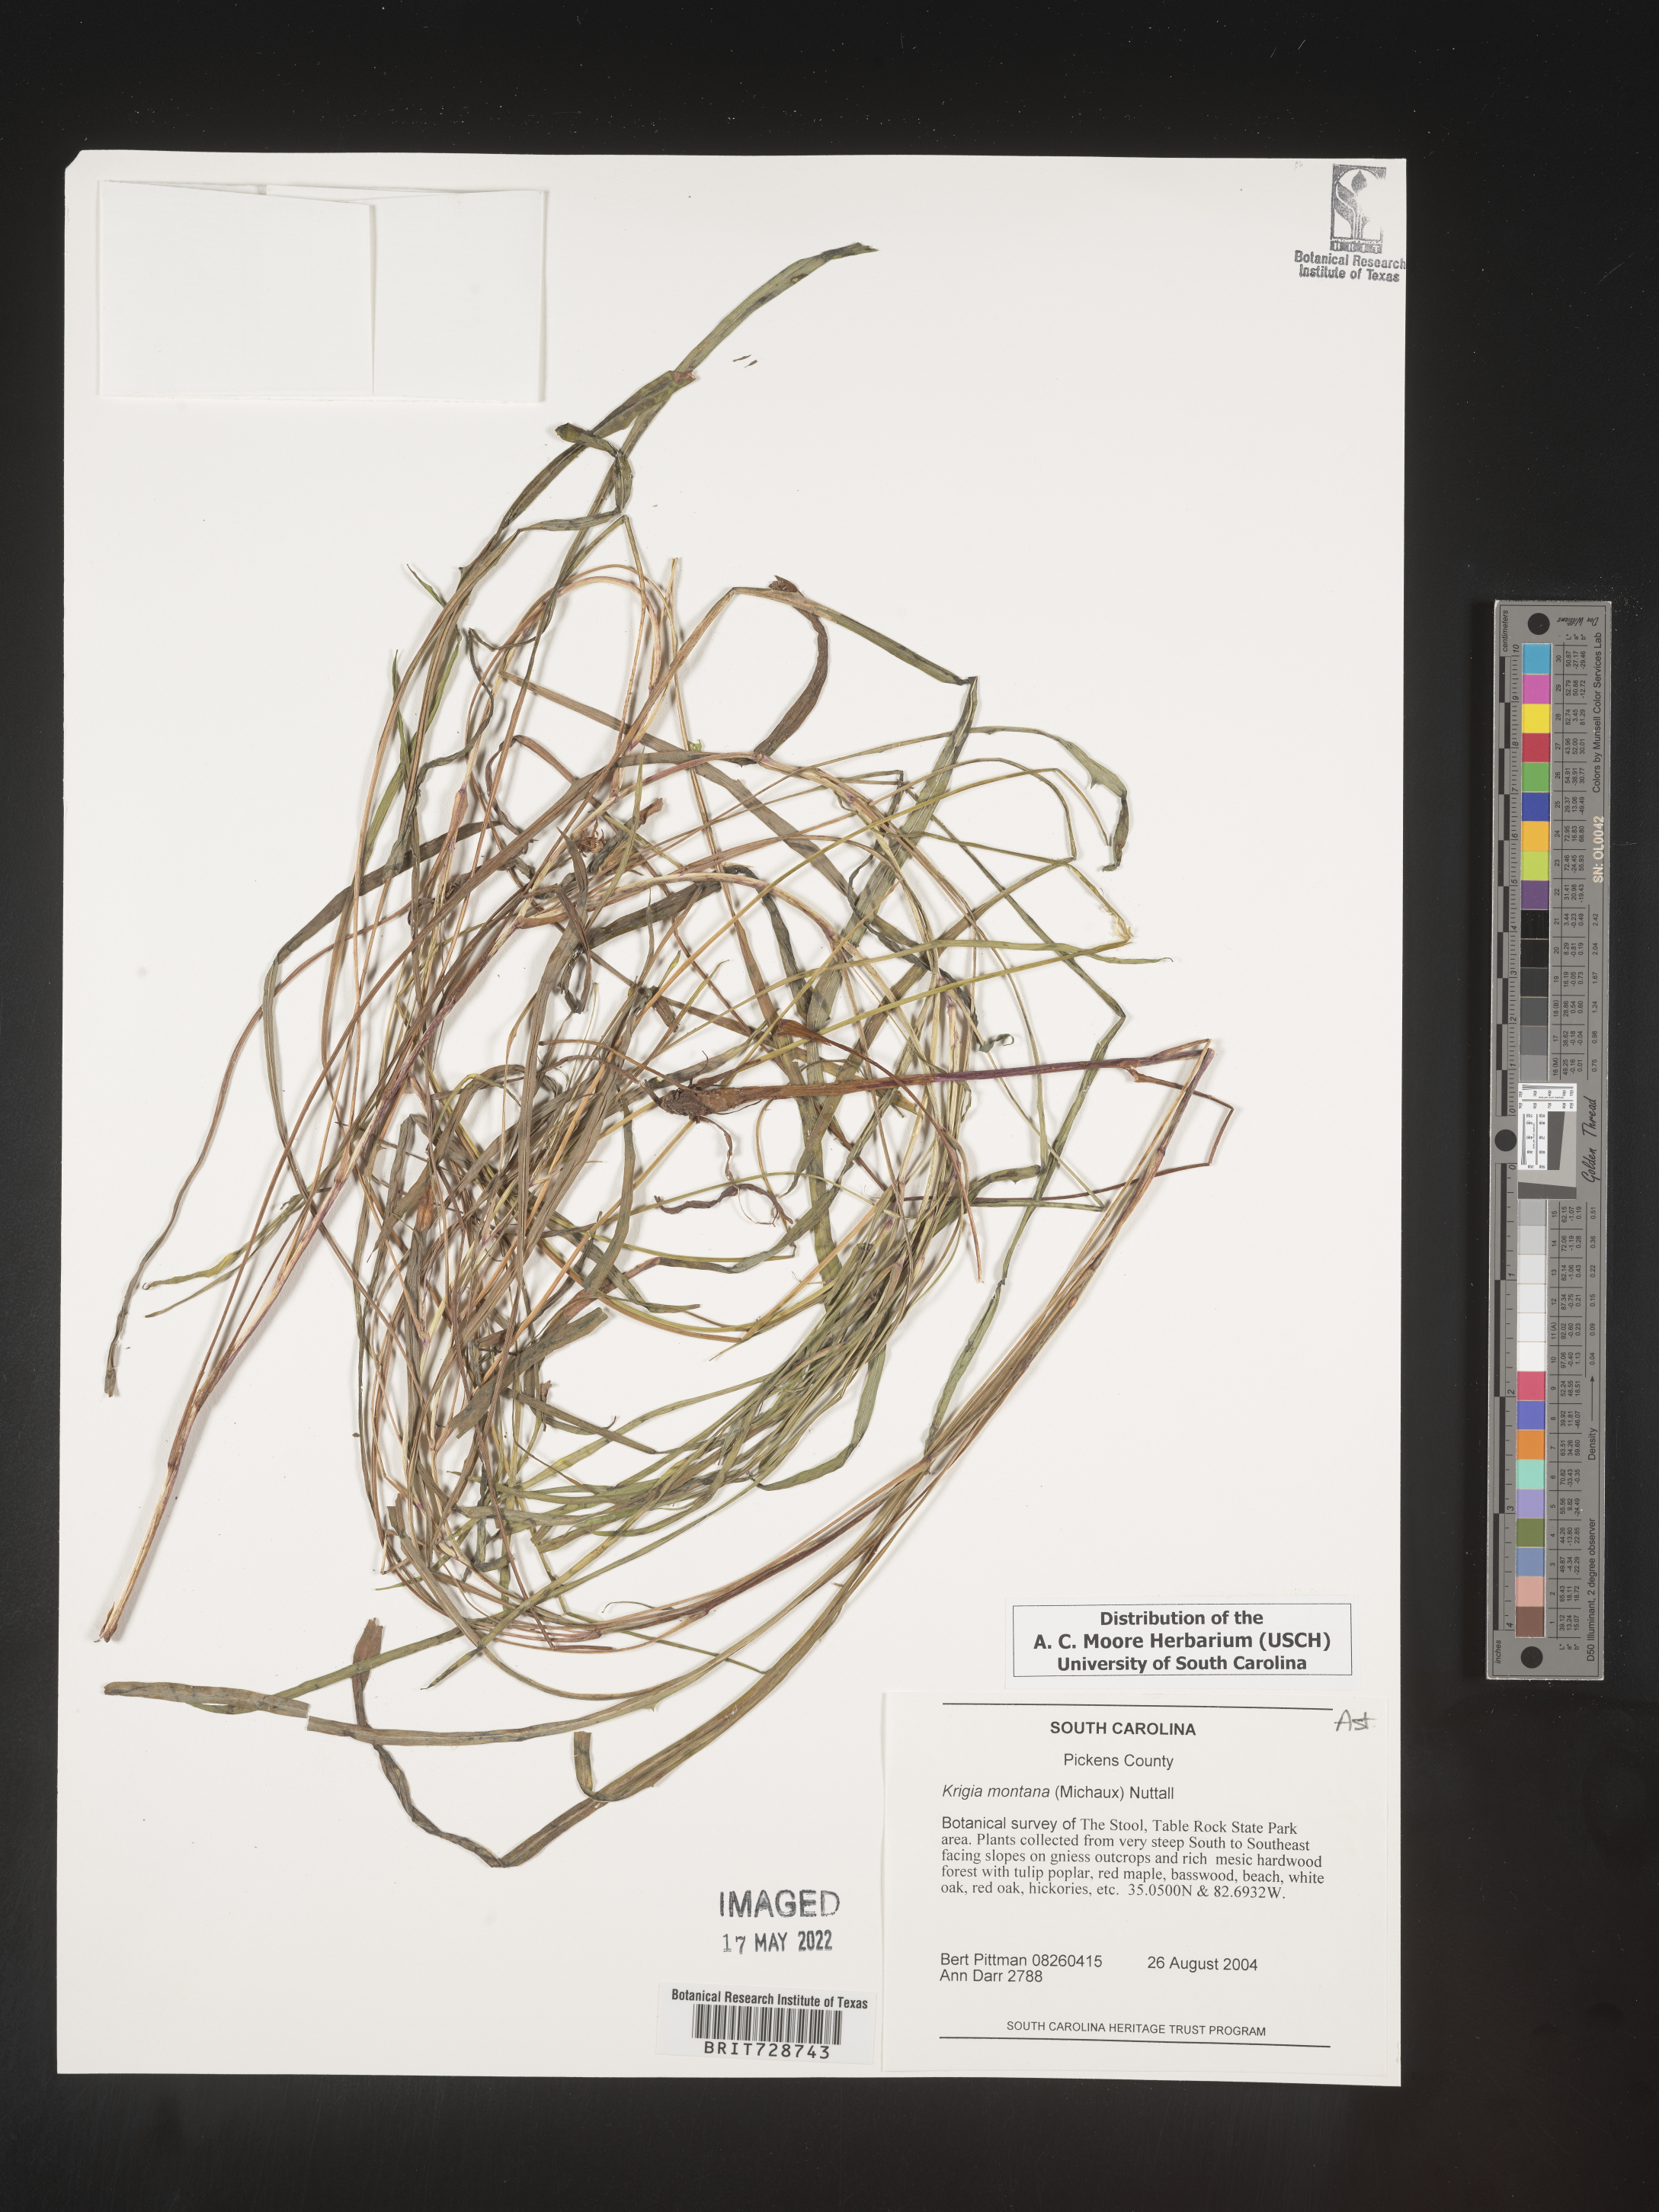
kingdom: Plantae
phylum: Tracheophyta
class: Magnoliopsida
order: Asterales
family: Asteraceae
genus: Krigia
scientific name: Krigia montana
